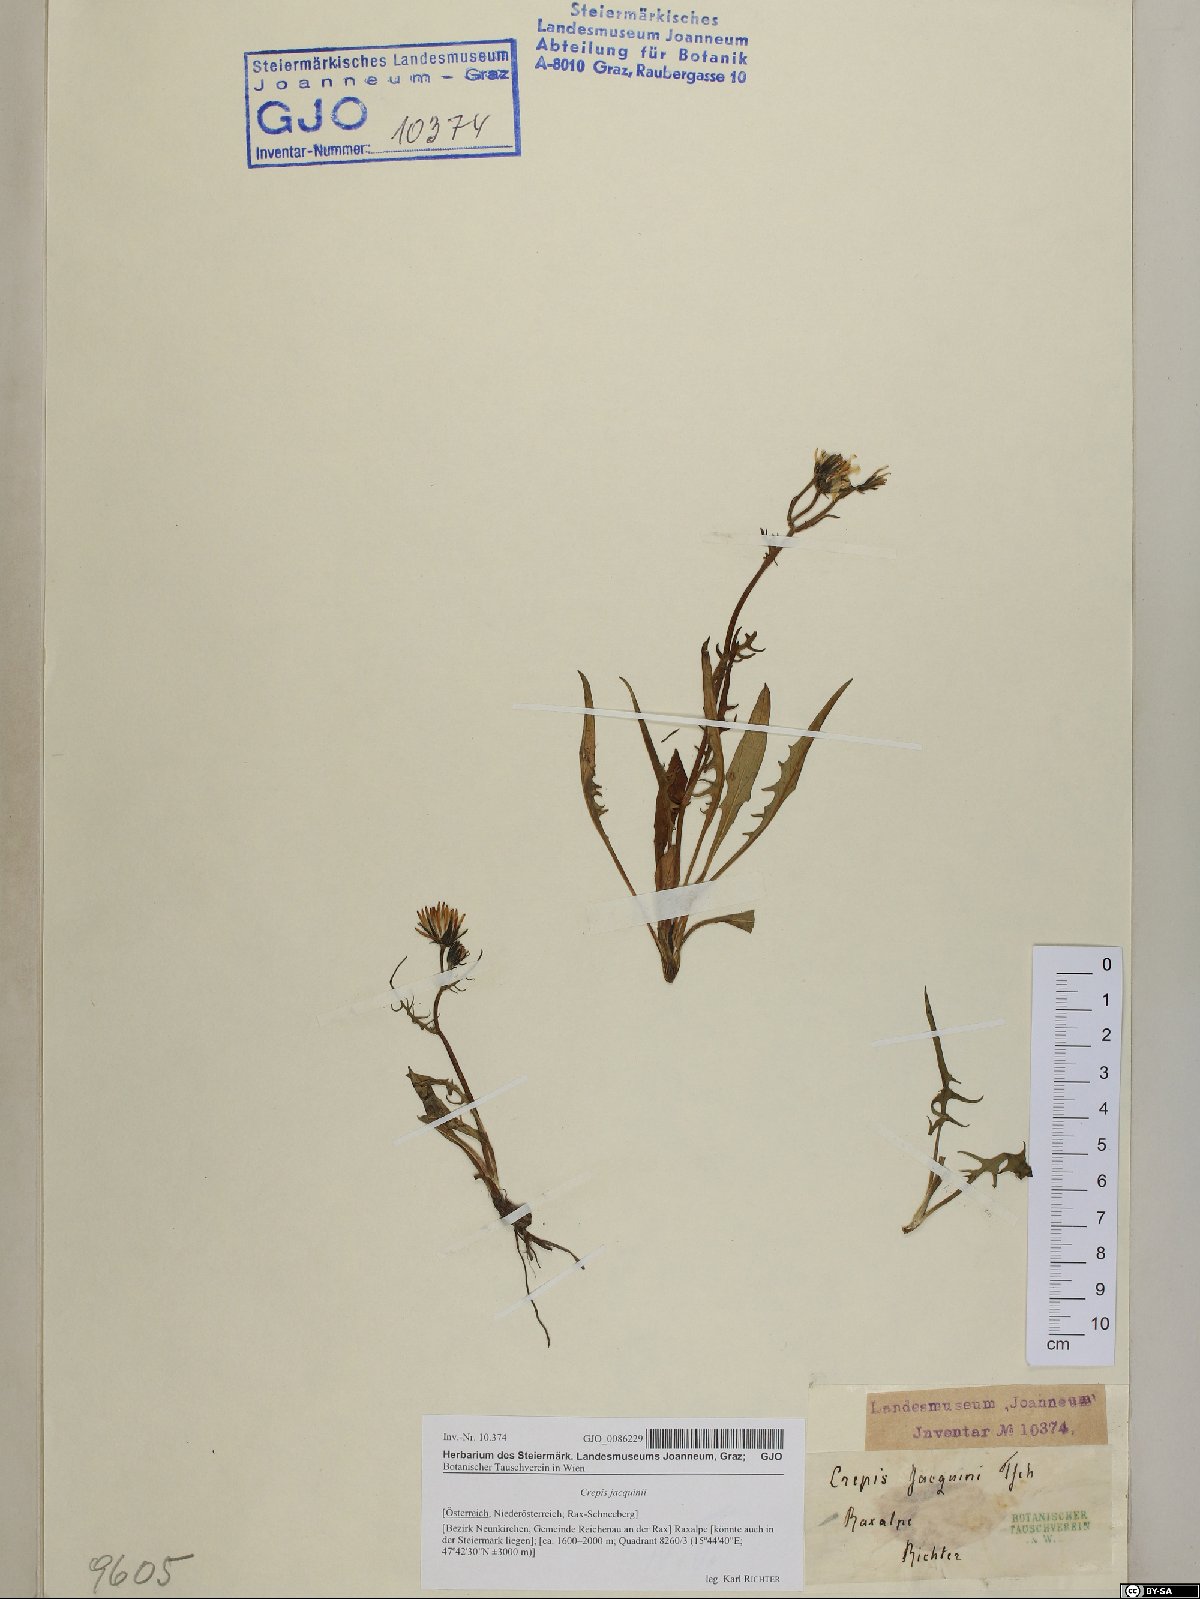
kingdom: Plantae
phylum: Tracheophyta
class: Magnoliopsida
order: Asterales
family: Asteraceae
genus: Crepis
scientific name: Crepis jacquinii
